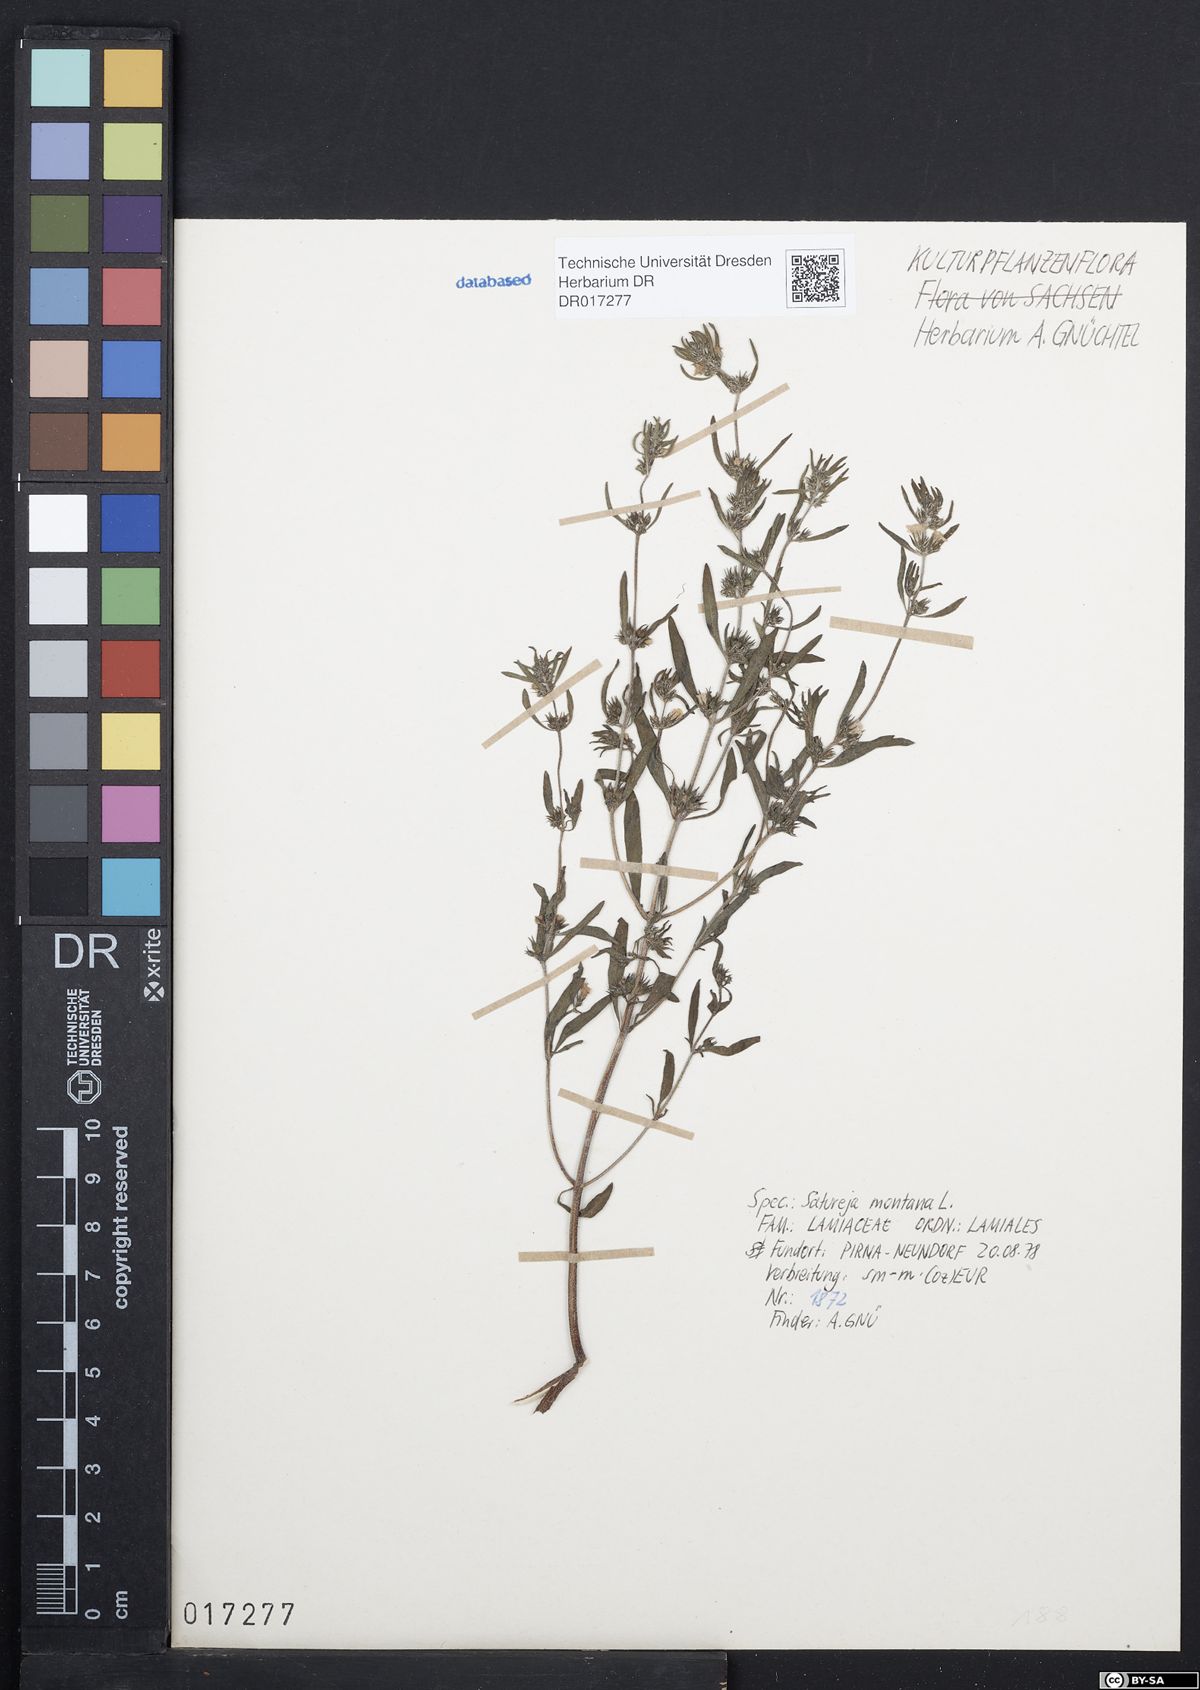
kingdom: Plantae
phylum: Tracheophyta
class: Magnoliopsida
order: Lamiales
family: Lamiaceae
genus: Satureja
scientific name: Satureja montana
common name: Winter savory
